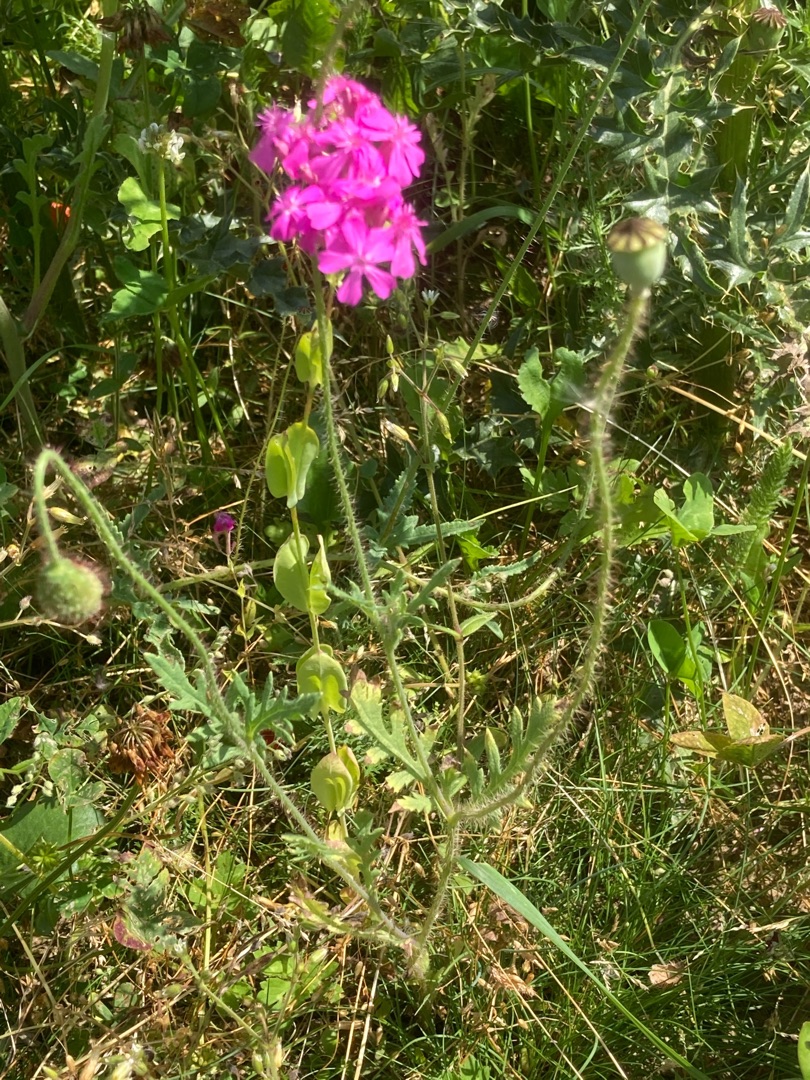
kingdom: Plantae
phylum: Tracheophyta
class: Magnoliopsida
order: Caryophyllales
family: Caryophyllaceae
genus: Atocion
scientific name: Atocion armeria
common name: Knippe-limurt
